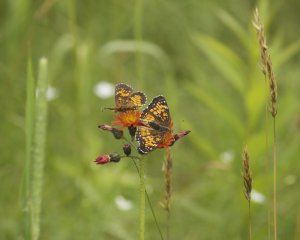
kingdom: Animalia
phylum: Arthropoda
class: Insecta
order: Lepidoptera
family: Nymphalidae
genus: Chlosyne
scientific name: Chlosyne harrisii
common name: Harris's Checkerspot
